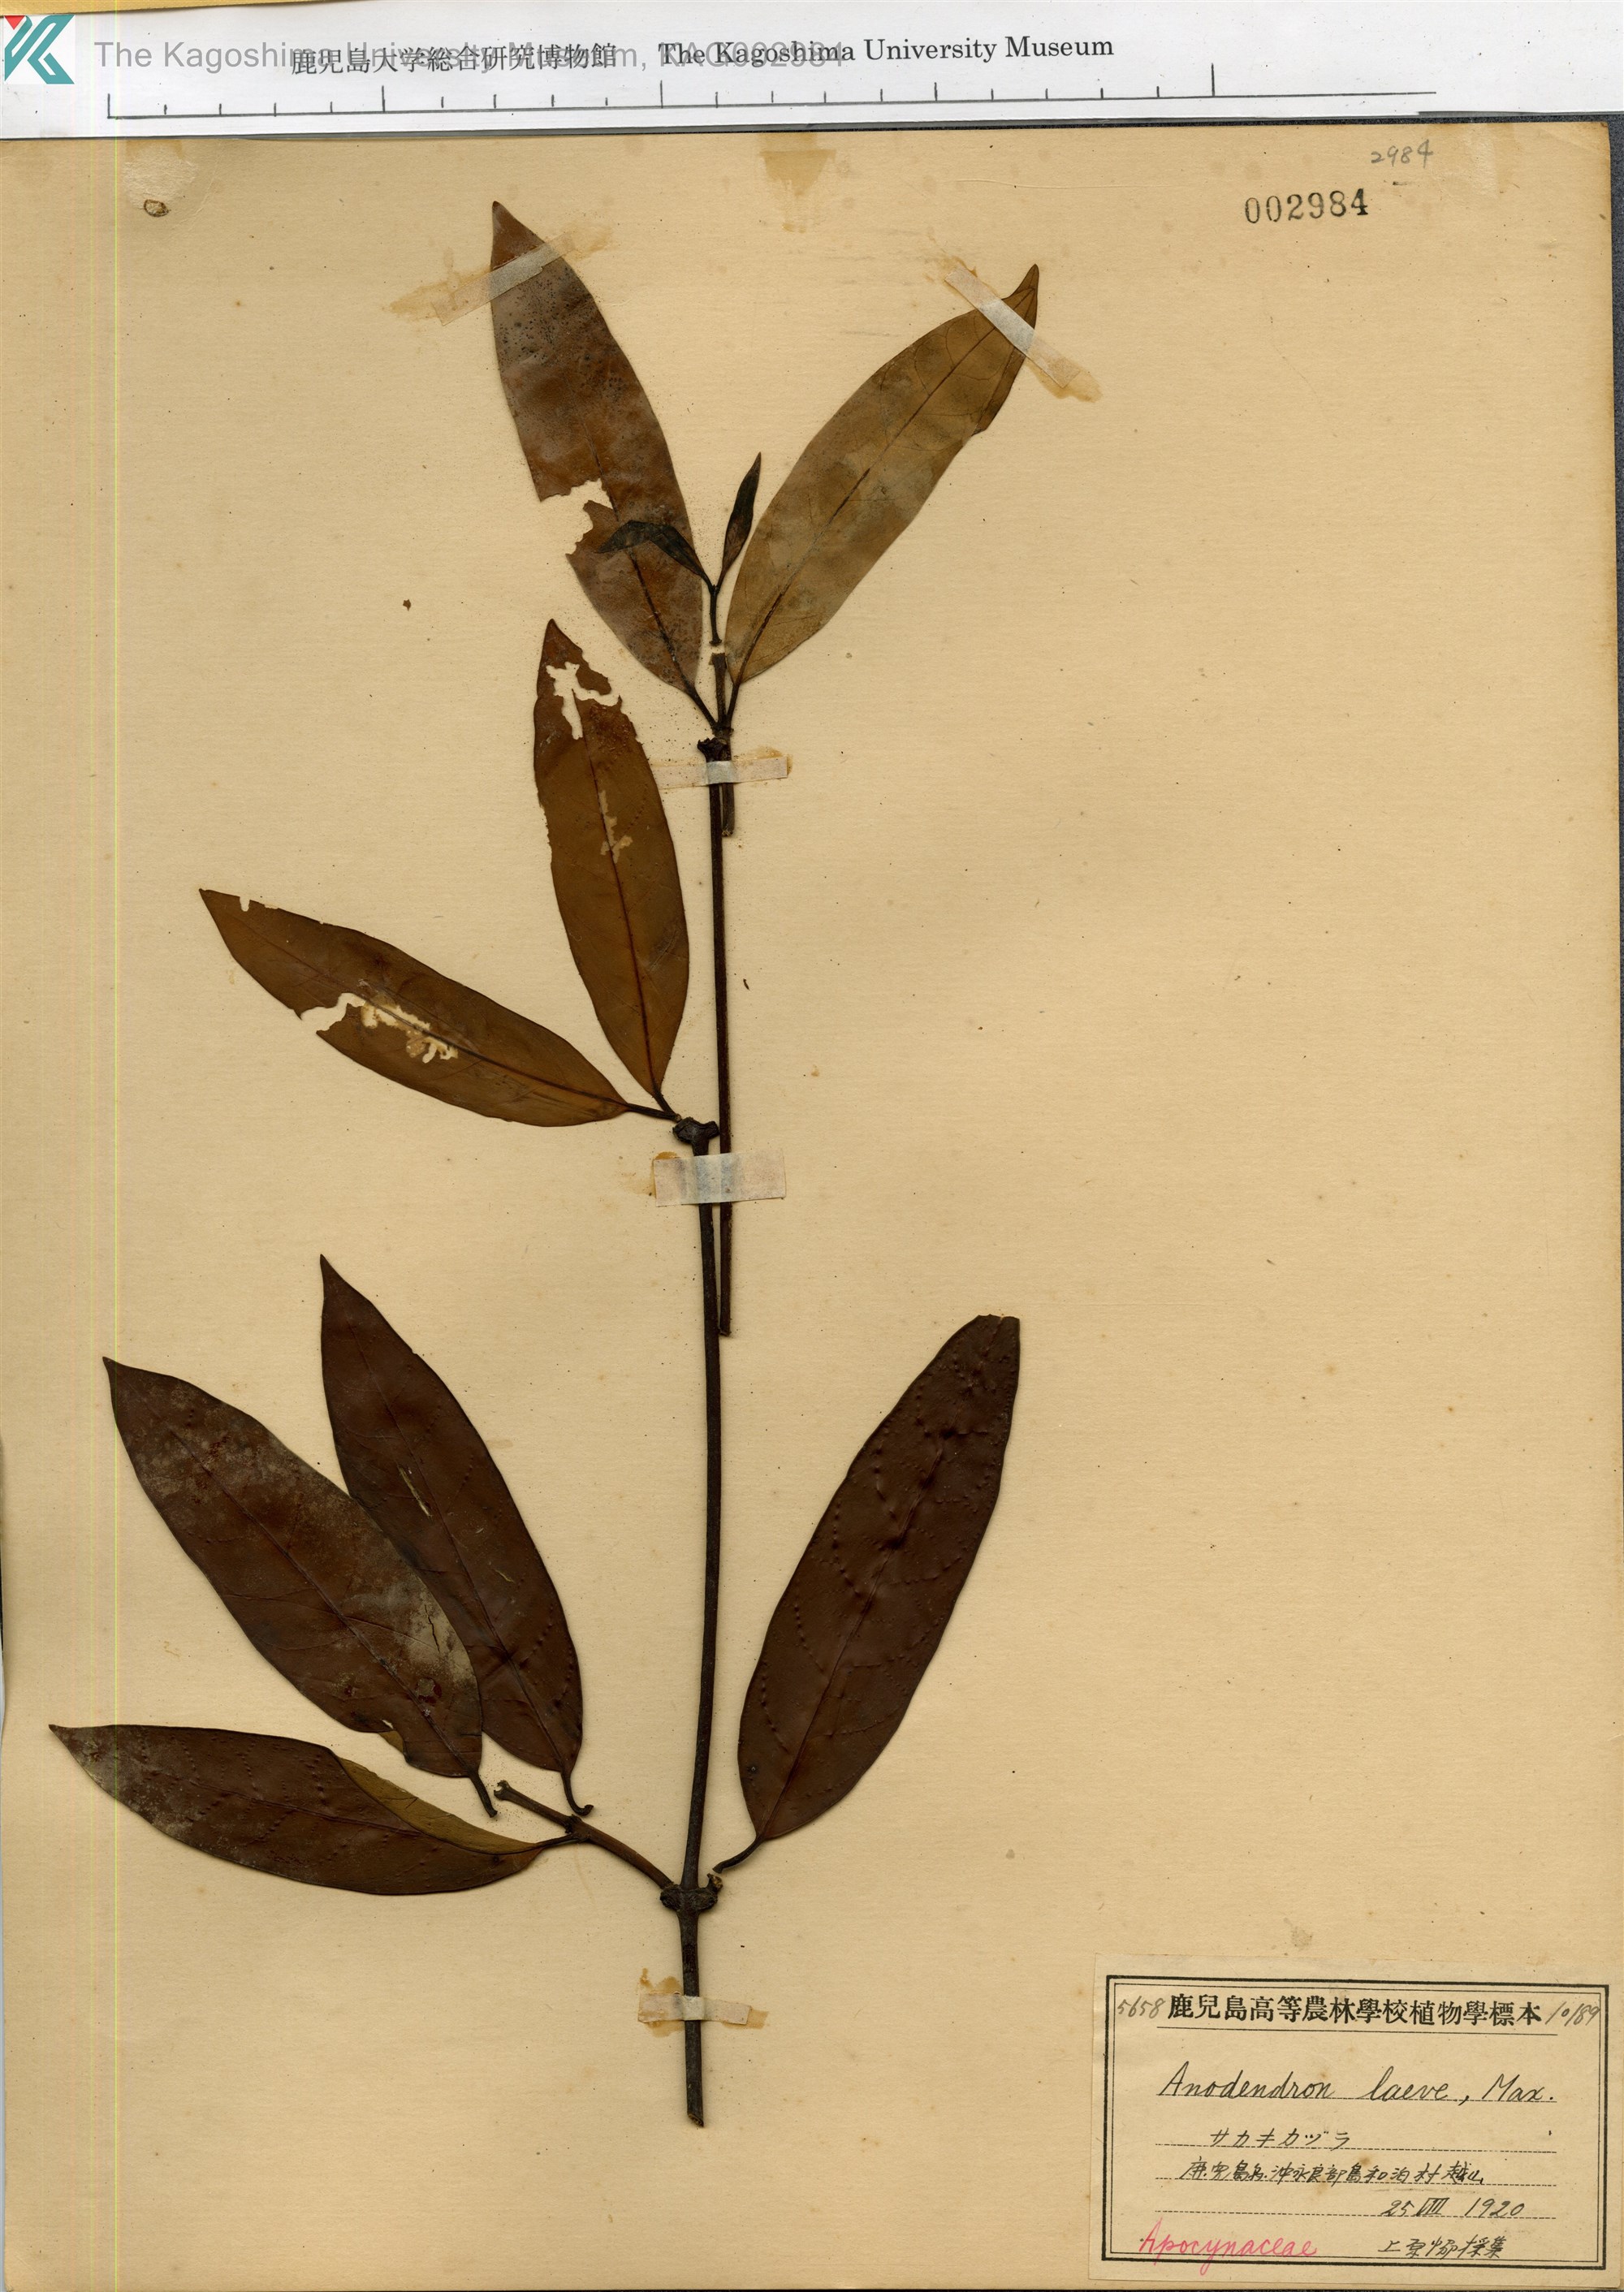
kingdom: Plantae
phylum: Tracheophyta
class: Magnoliopsida
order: Gentianales
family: Apocynaceae
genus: Anodendron
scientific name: Anodendron affine
